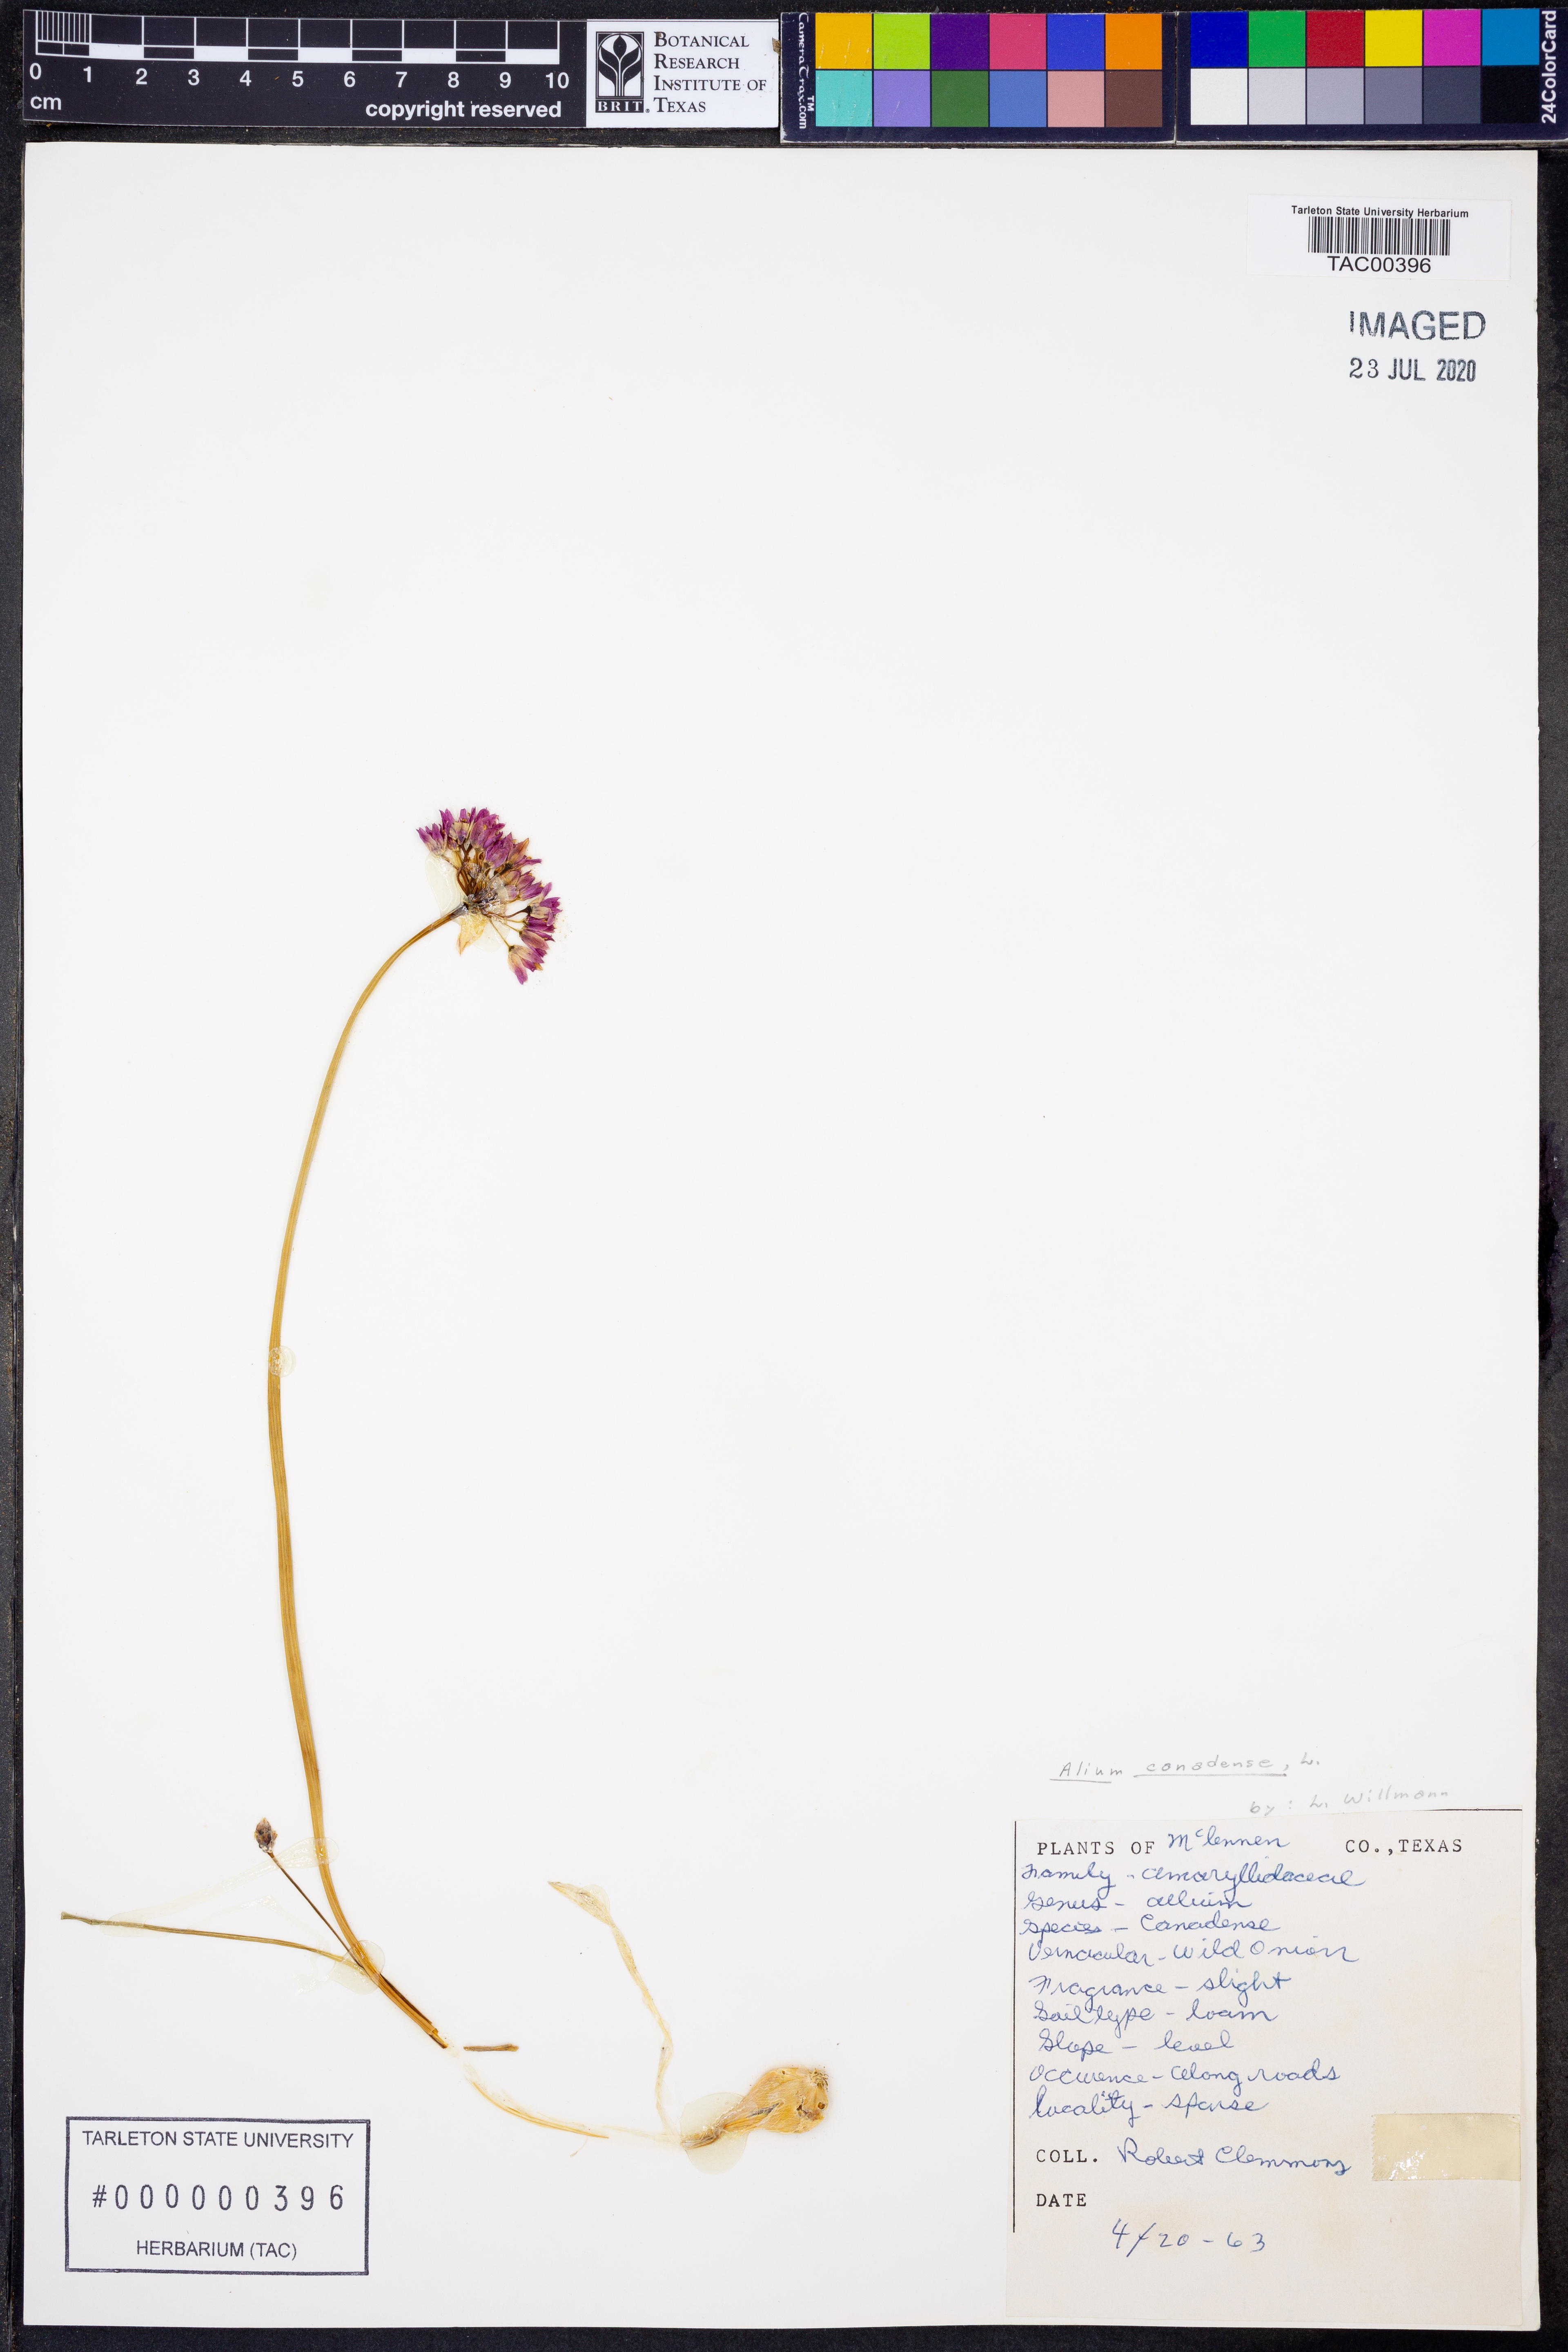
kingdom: Plantae
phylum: Tracheophyta
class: Liliopsida
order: Asparagales
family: Amaryllidaceae
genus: Allium
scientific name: Allium canadense
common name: Meadow garlic
